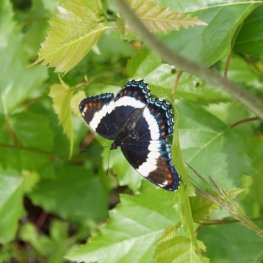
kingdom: Animalia
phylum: Arthropoda
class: Insecta
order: Lepidoptera
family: Nymphalidae
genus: Limenitis
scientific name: Limenitis arthemis
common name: Red-spotted Admiral
